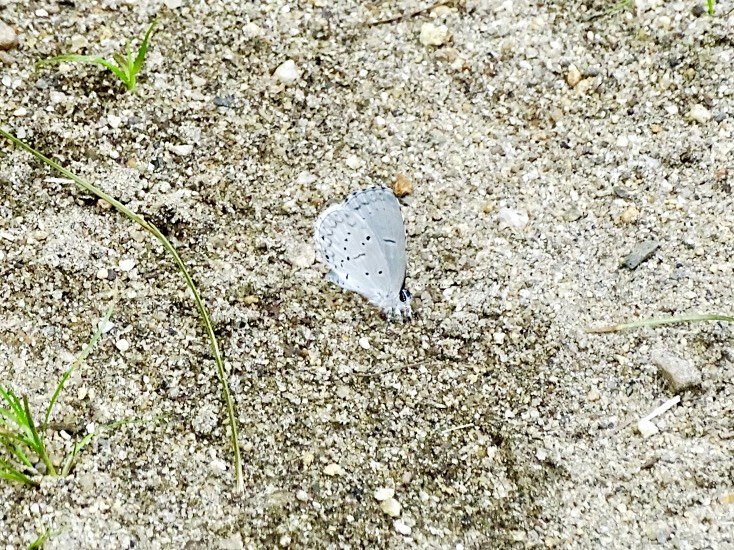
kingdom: Animalia
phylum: Arthropoda
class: Insecta
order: Lepidoptera
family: Lycaenidae
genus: Cyaniris
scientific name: Cyaniris neglecta
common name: Summer Azure
